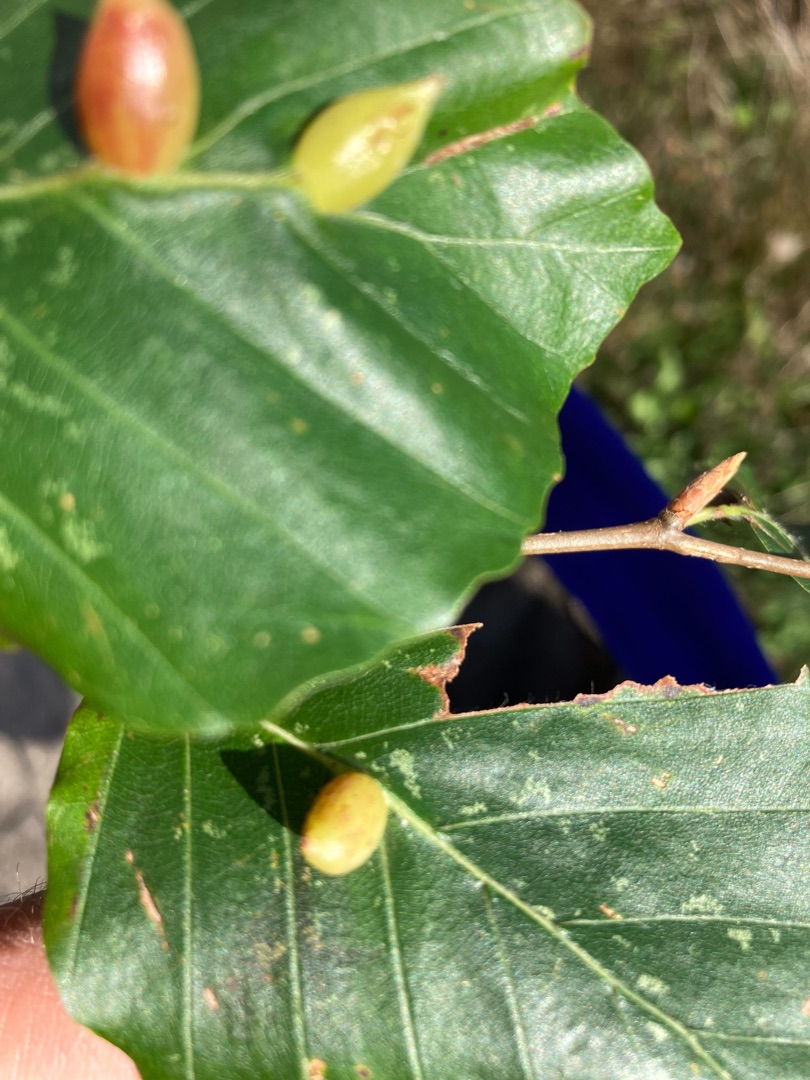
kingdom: Animalia
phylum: Arthropoda
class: Insecta
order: Diptera
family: Cecidomyiidae
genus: Mikiola
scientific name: Mikiola fagi
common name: Bøgegalmyg
